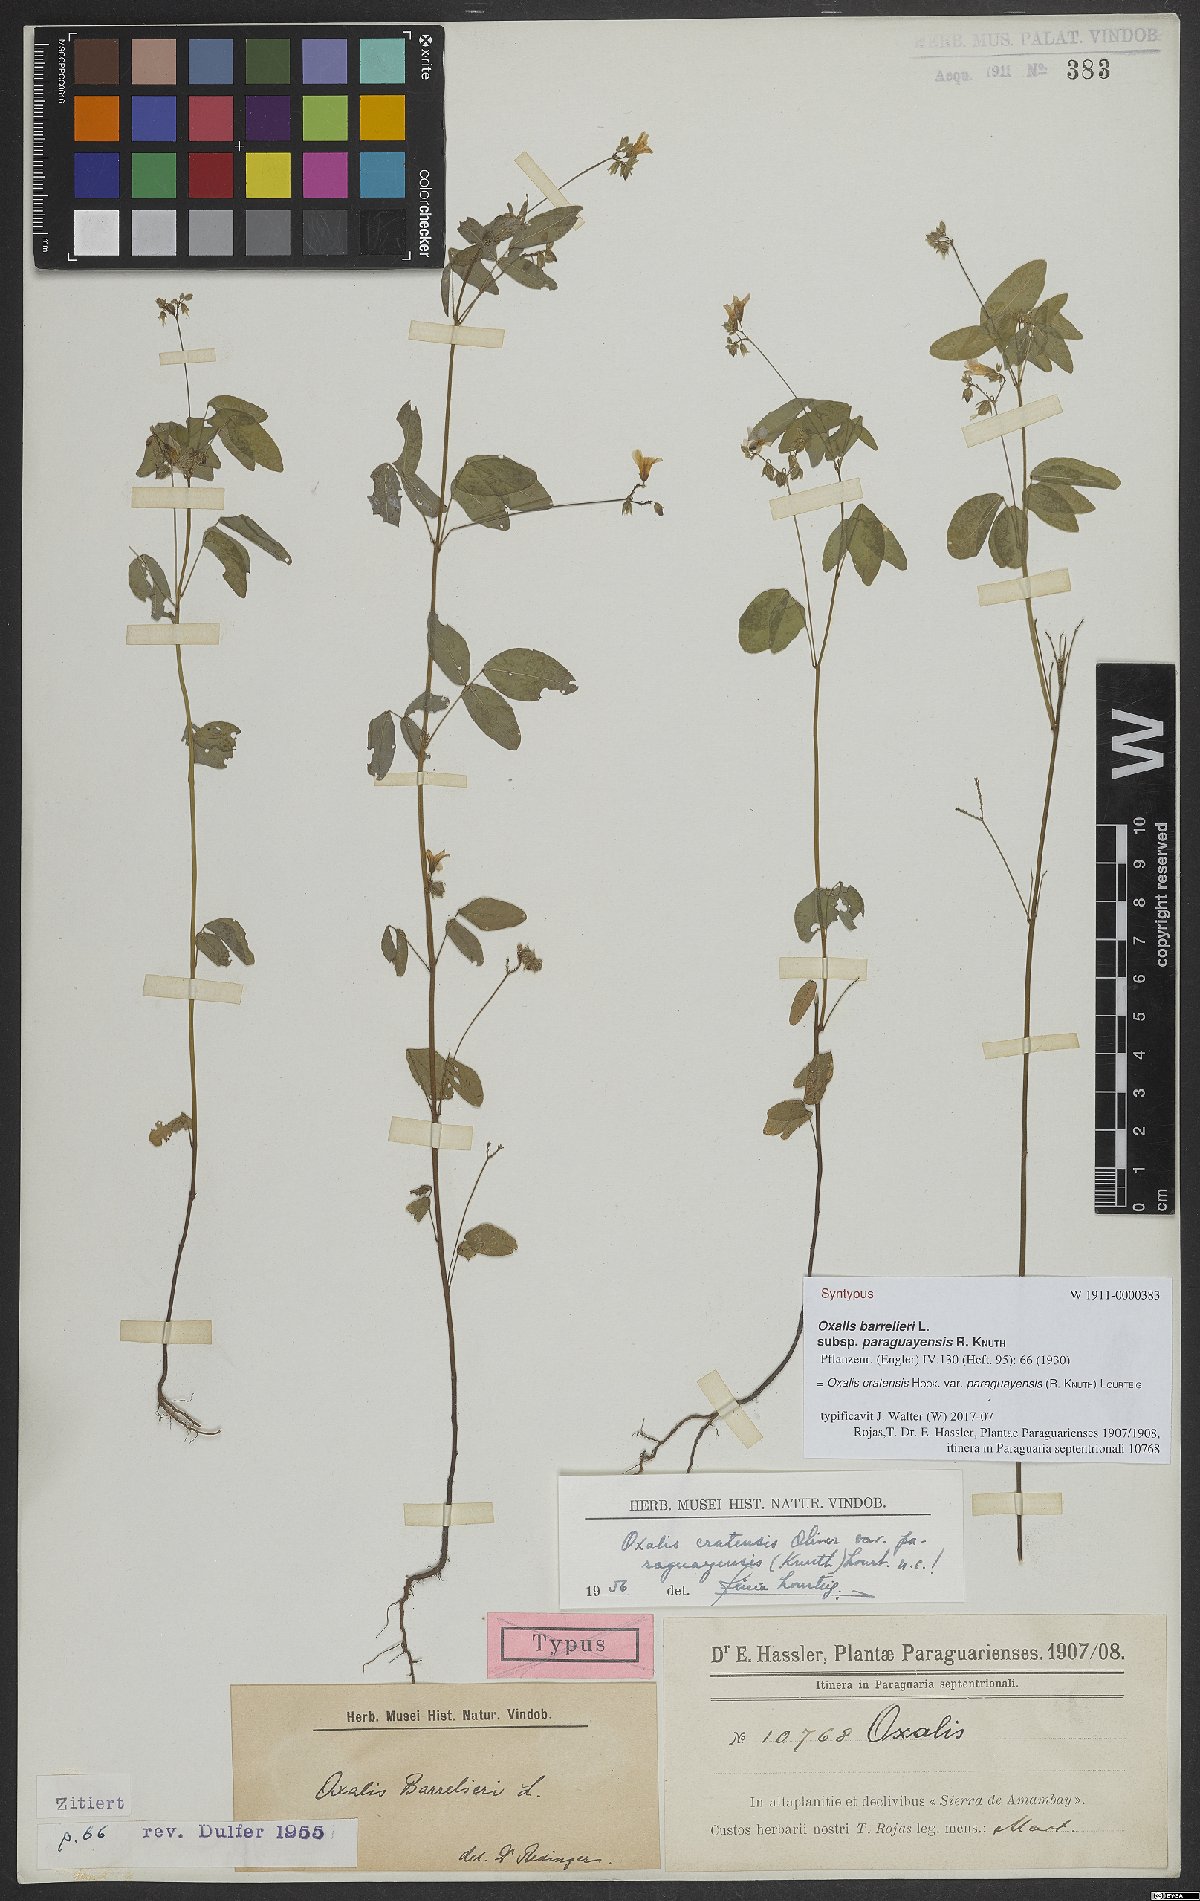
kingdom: Plantae
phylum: Tracheophyta
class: Magnoliopsida
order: Oxalidales
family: Oxalidaceae
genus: Oxalis
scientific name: Oxalis cratensis
